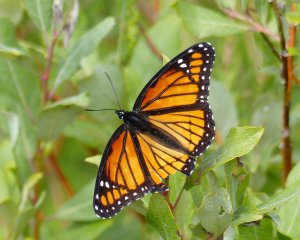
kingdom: Animalia
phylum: Arthropoda
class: Insecta
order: Lepidoptera
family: Nymphalidae
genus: Limenitis
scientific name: Limenitis archippus
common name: Viceroy
